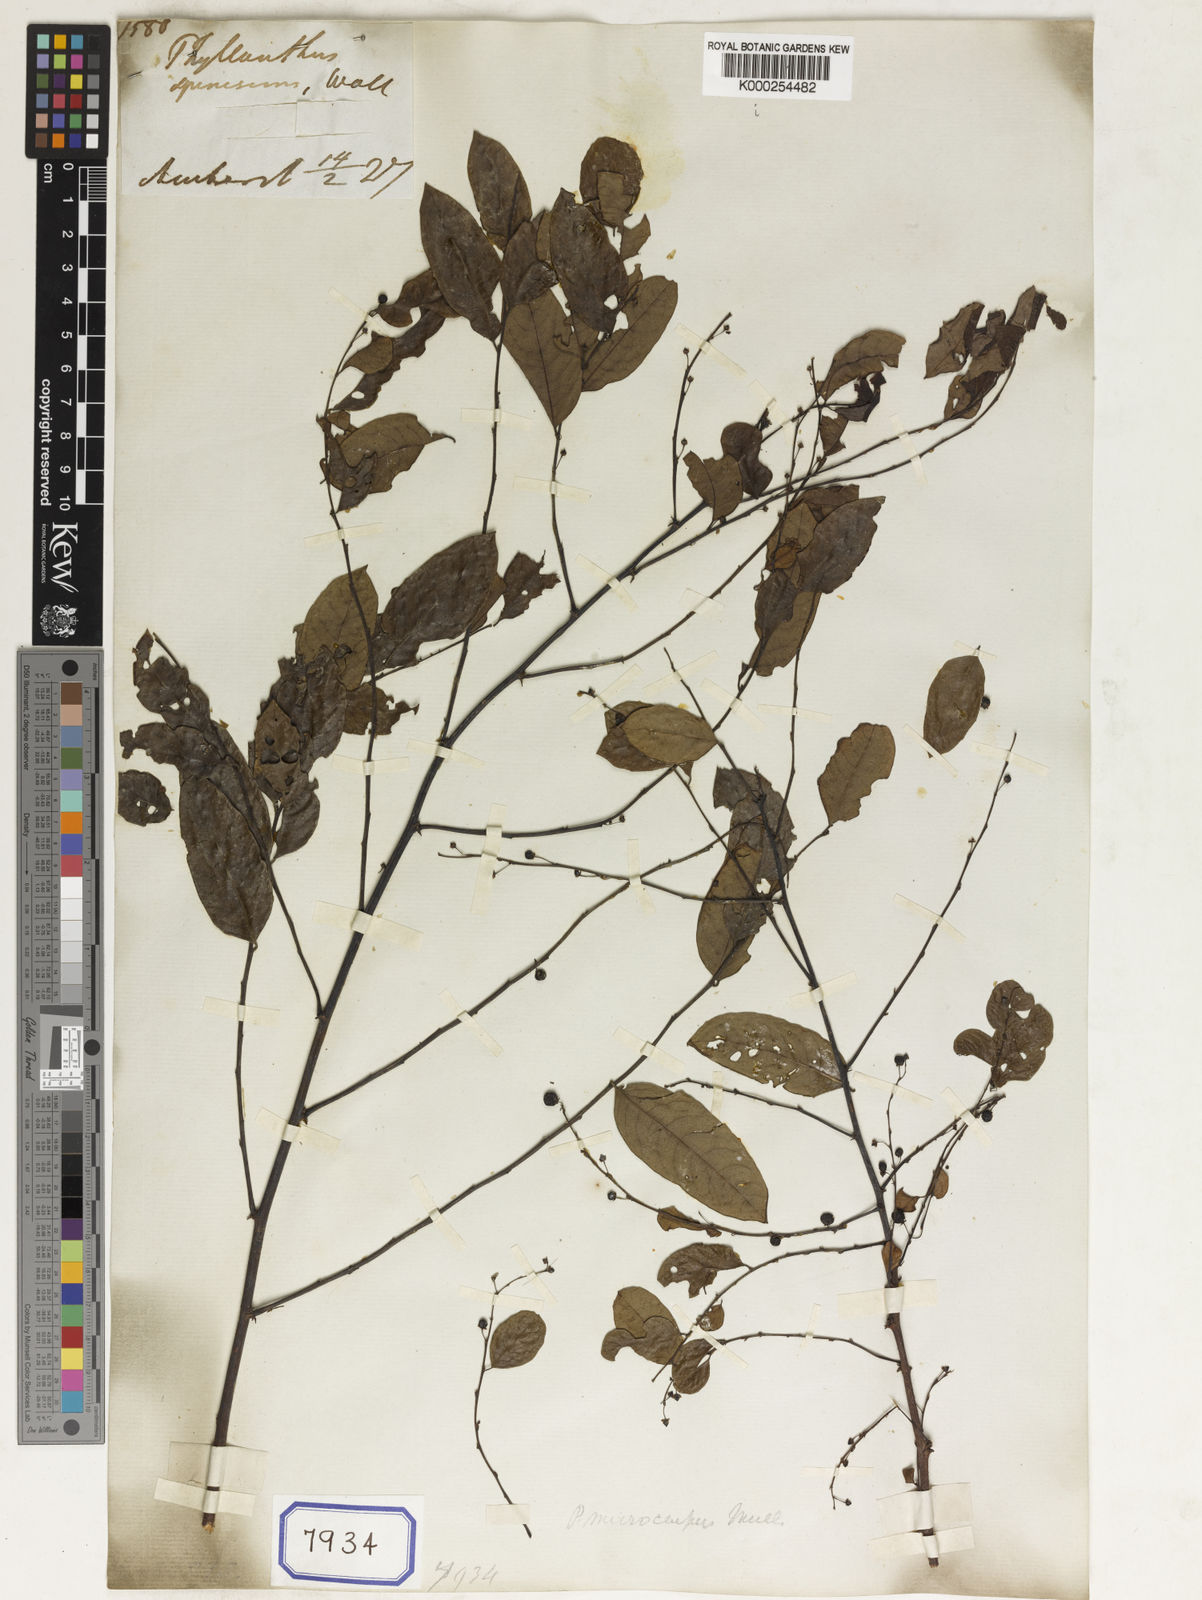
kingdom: Plantae
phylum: Tracheophyta
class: Magnoliopsida
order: Malpighiales
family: Phyllanthaceae
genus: Phyllanthus
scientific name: Phyllanthus
